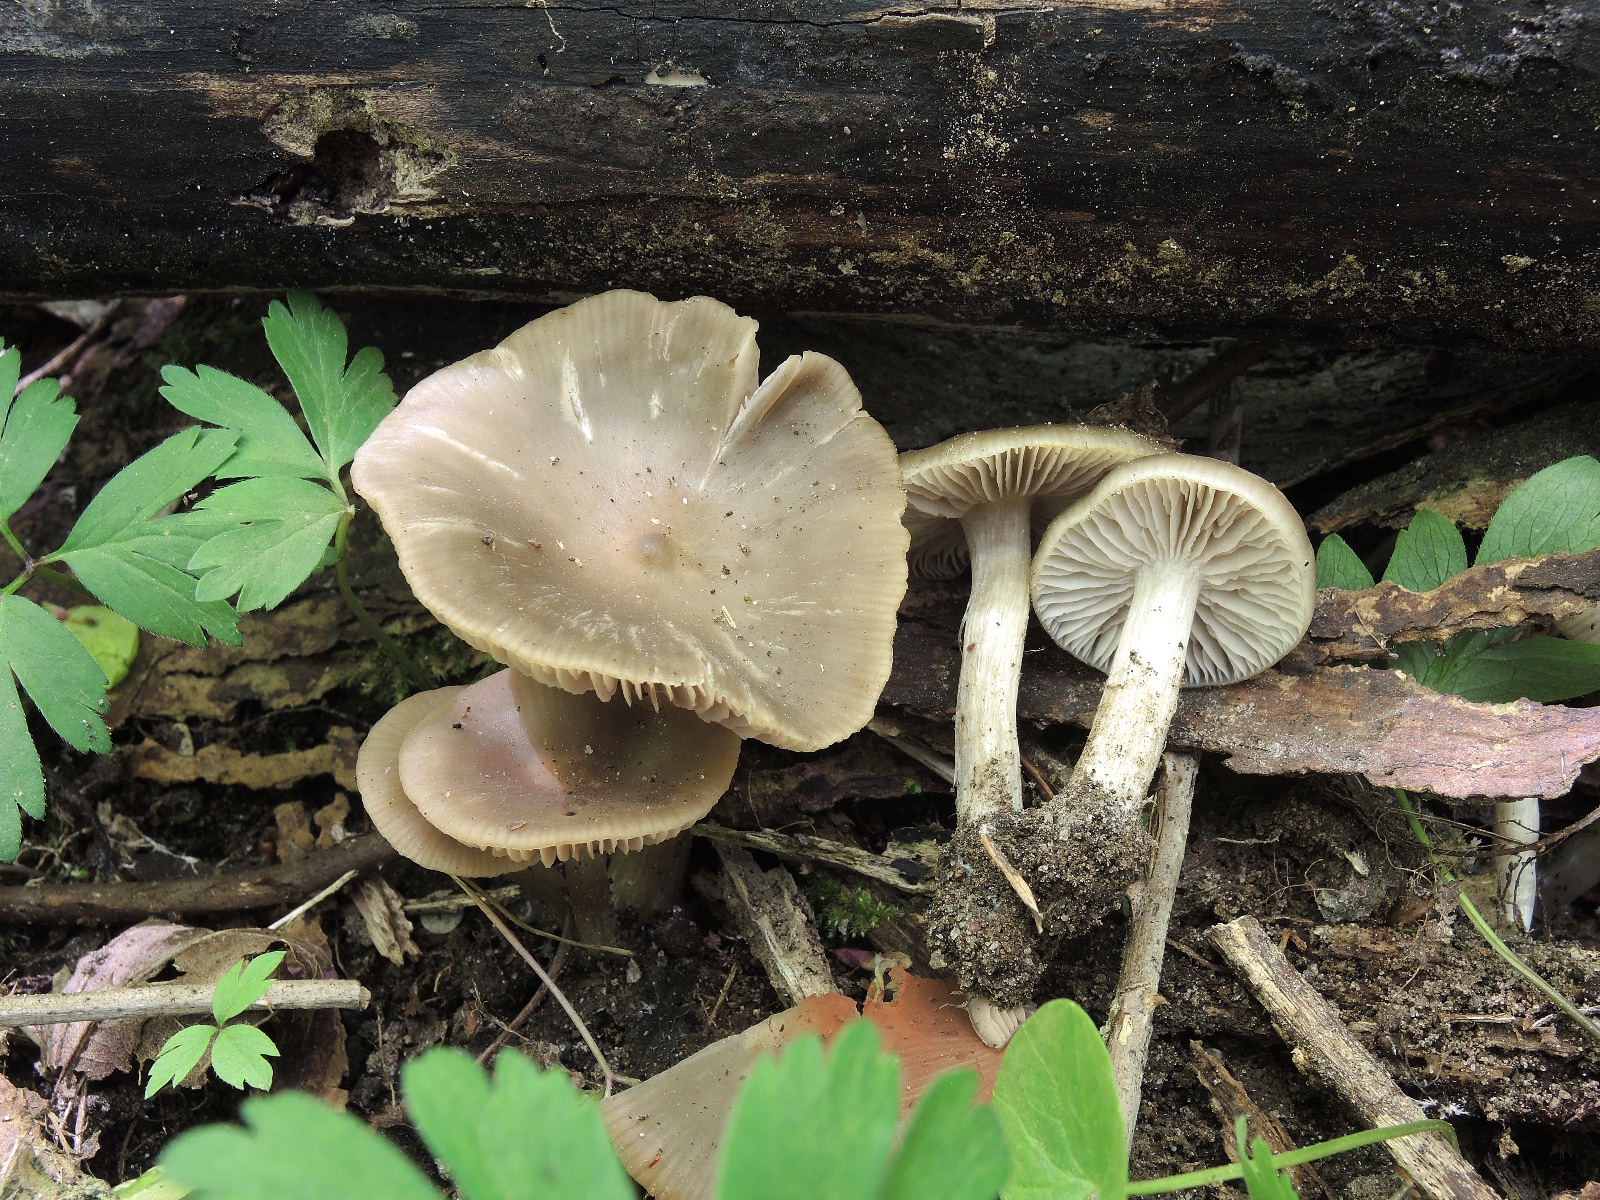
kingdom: Fungi
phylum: Basidiomycota
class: Agaricomycetes
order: Agaricales
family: Entolomataceae
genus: Entoloma
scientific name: Entoloma aprile
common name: maj-rødblad
